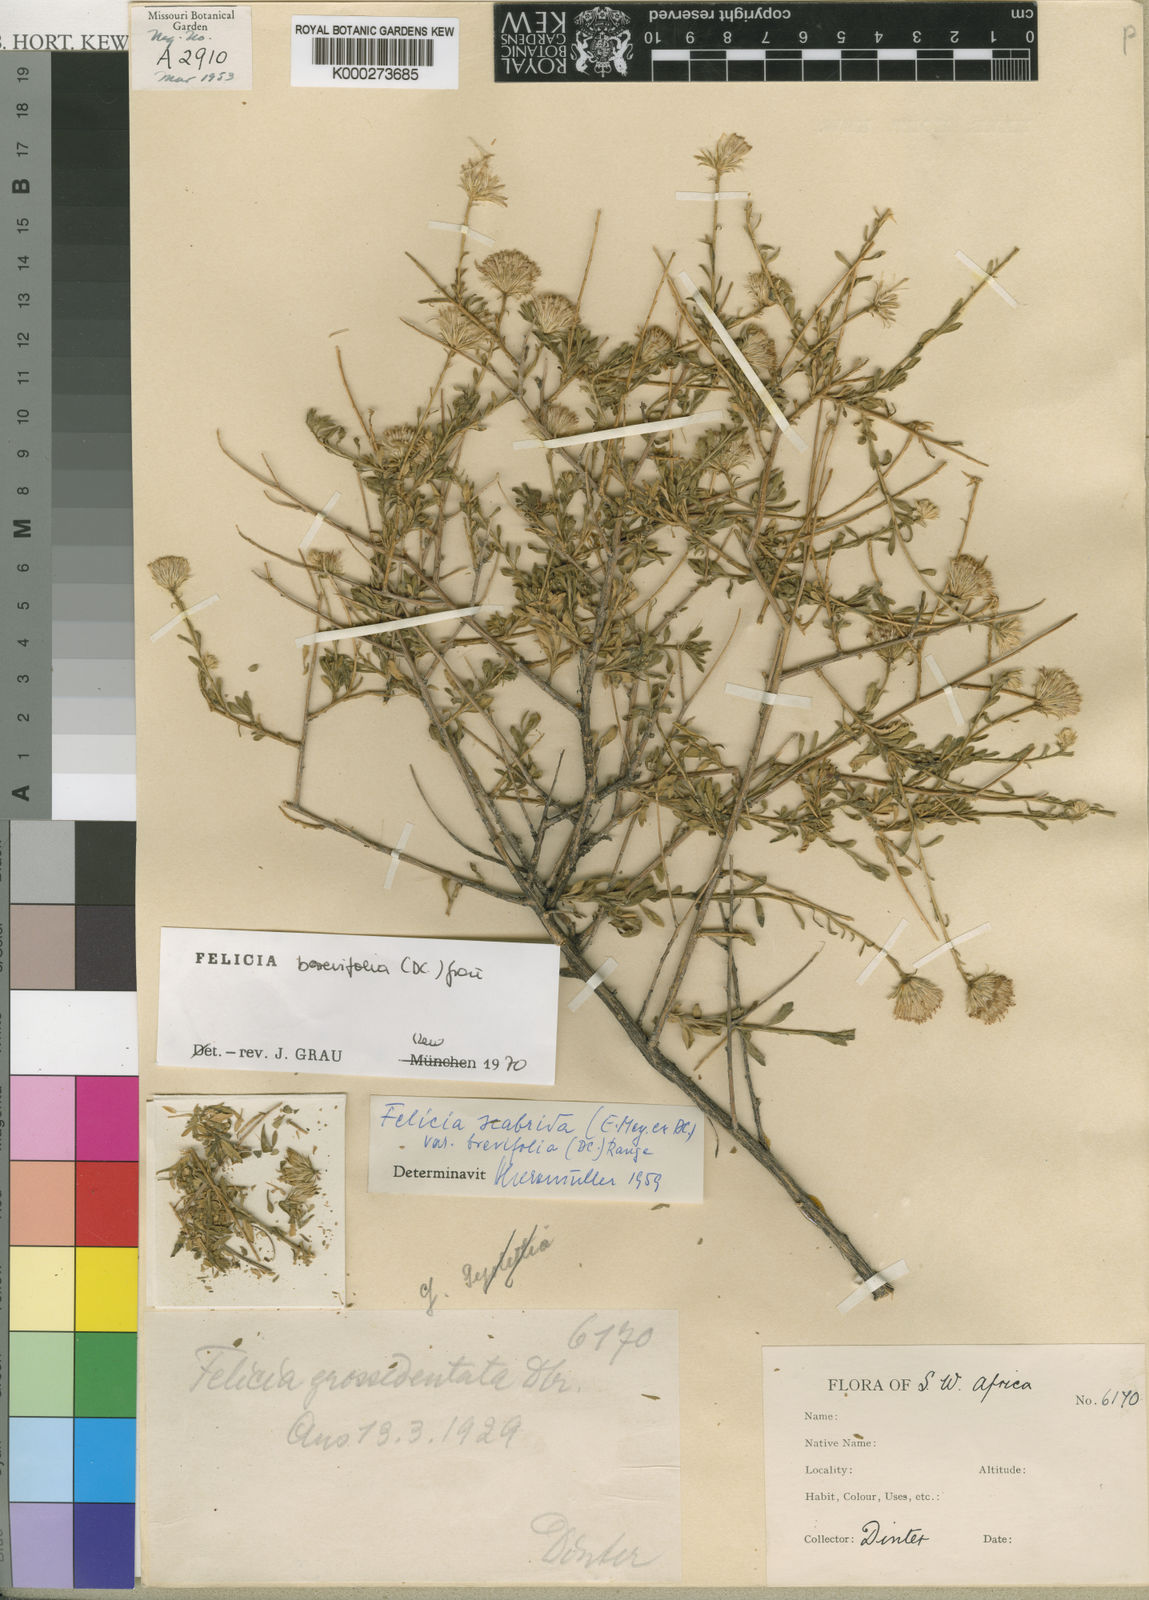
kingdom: Plantae
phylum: Tracheophyta
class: Magnoliopsida
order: Asterales
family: Asteraceae
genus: Felicia
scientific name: Felicia brevifolia
